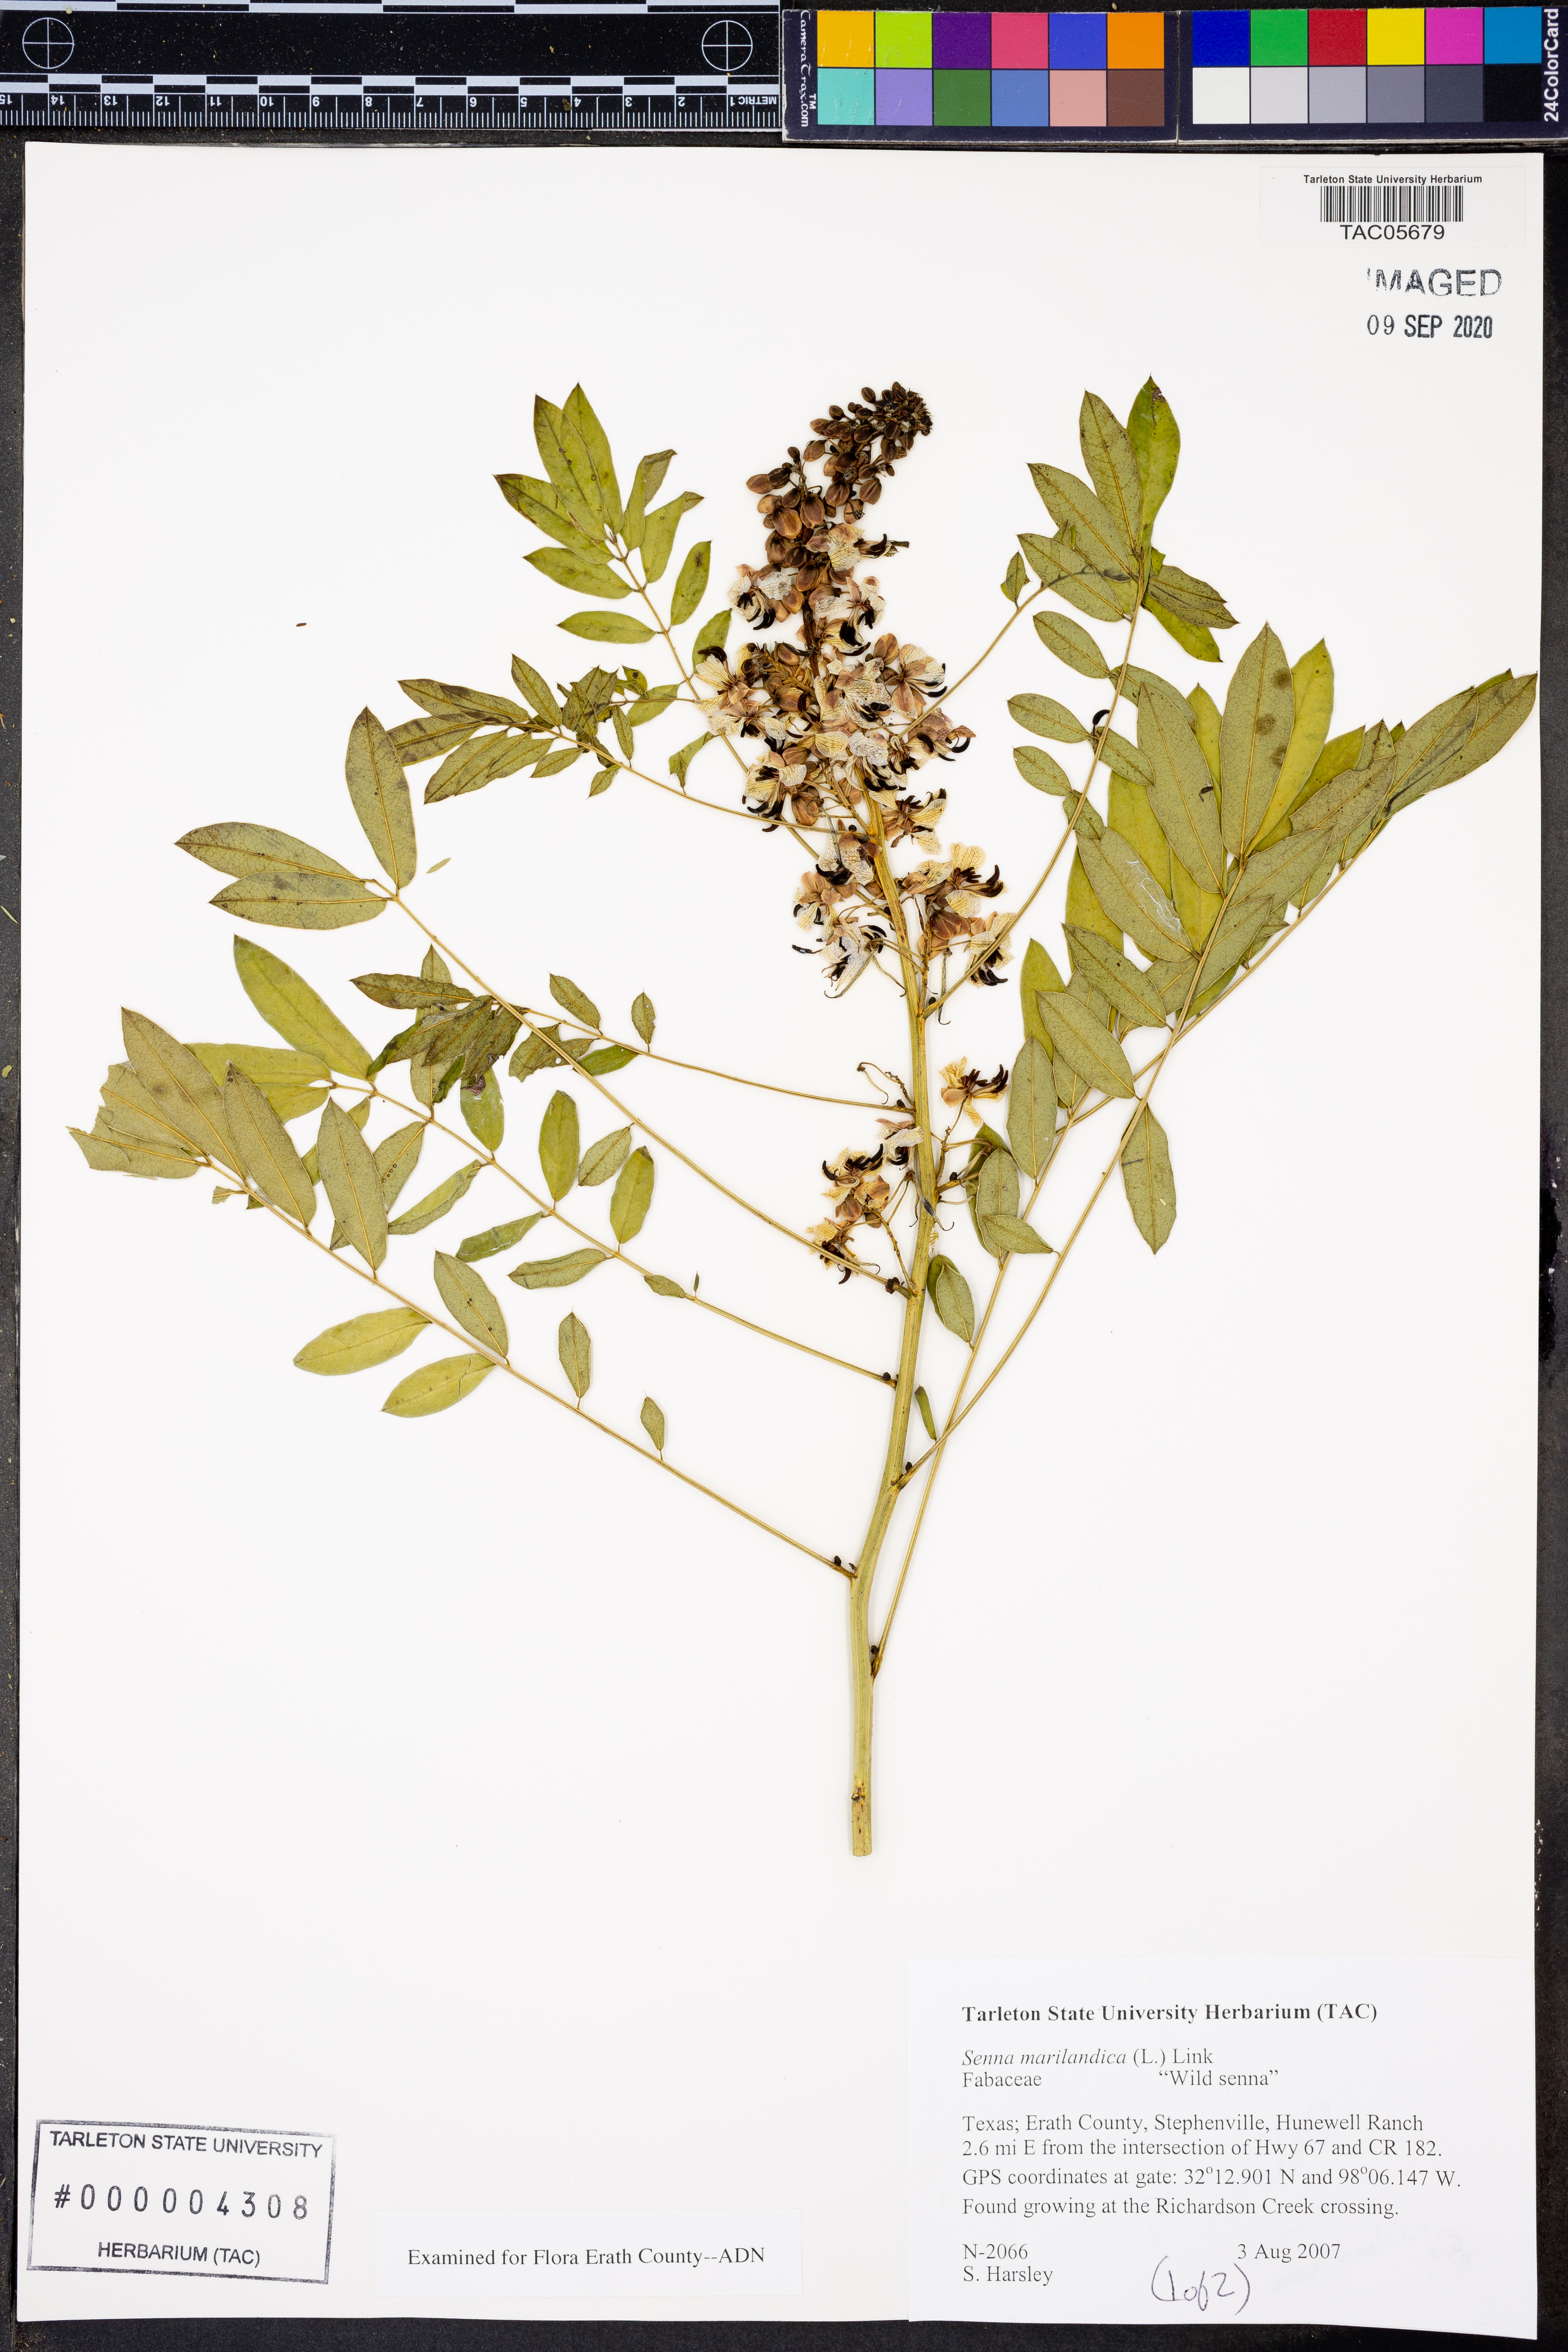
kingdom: Plantae
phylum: Tracheophyta
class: Magnoliopsida
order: Fabales
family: Fabaceae
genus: Senna
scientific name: Senna marilandica
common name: American senna
